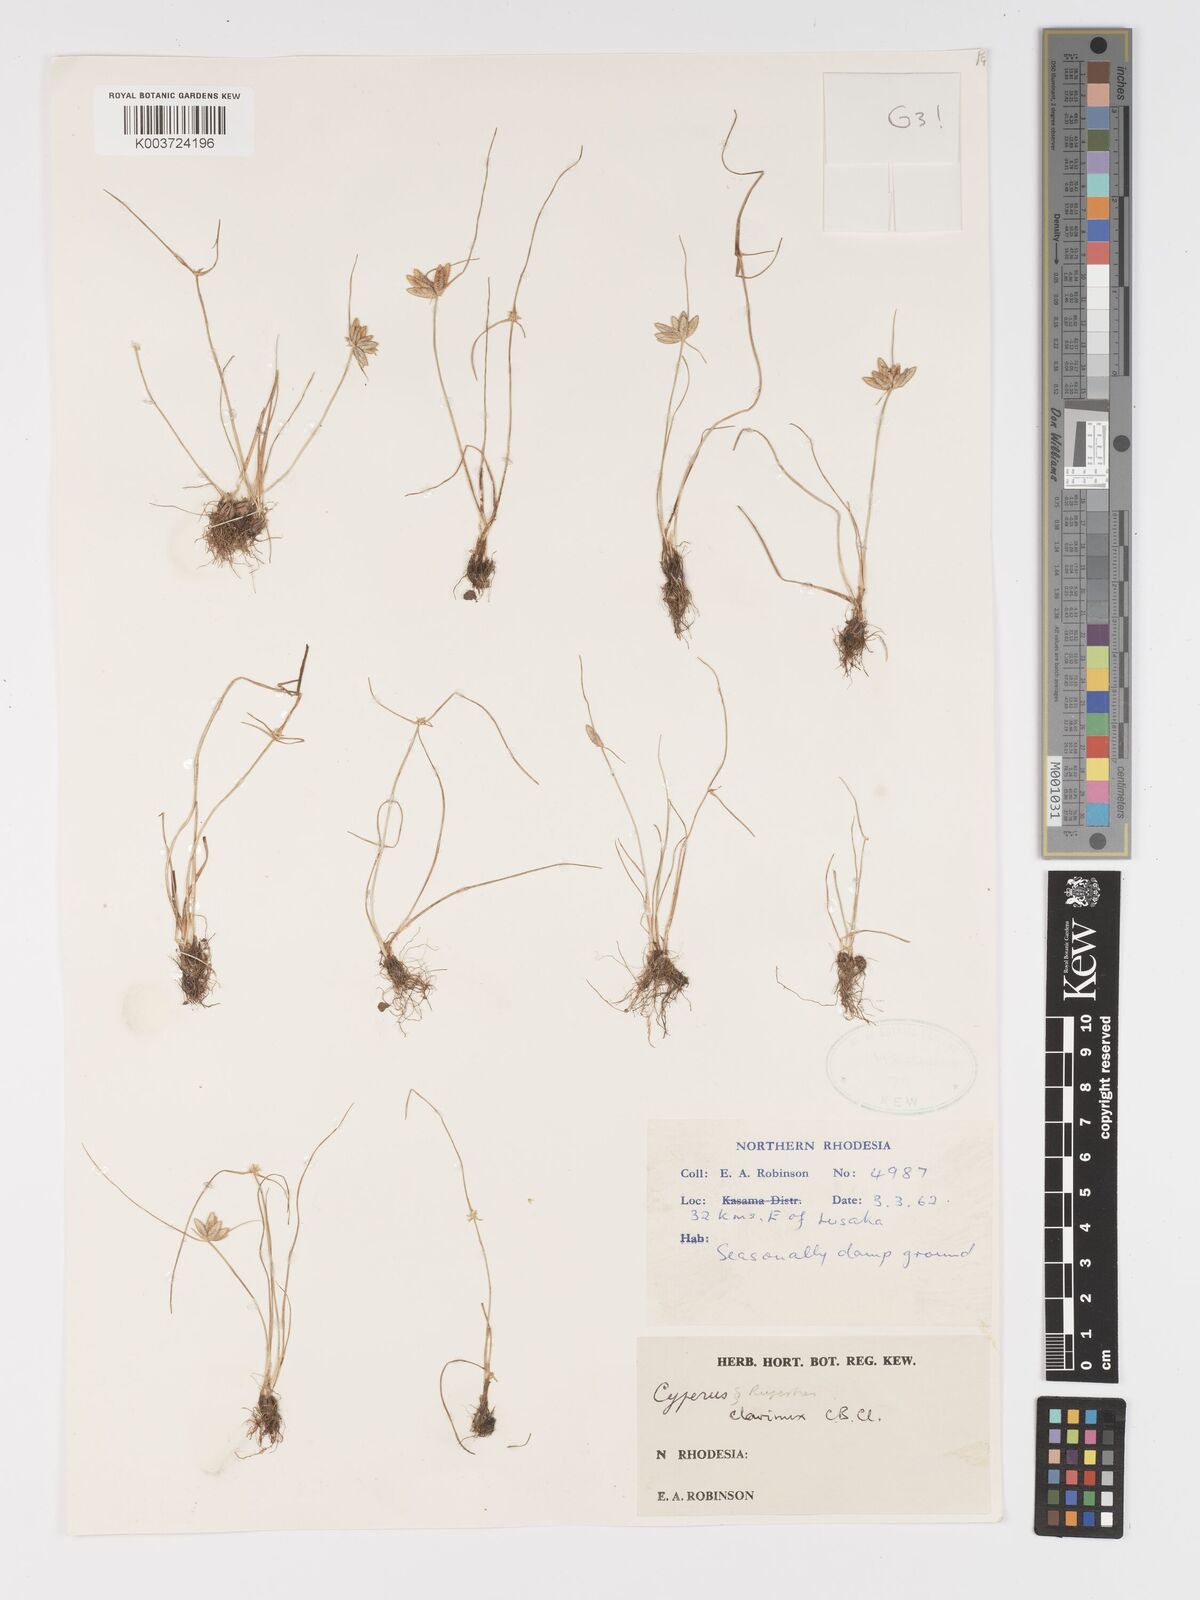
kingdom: Plantae
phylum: Tracheophyta
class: Liliopsida
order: Poales
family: Cyperaceae
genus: Cyperus
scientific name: Cyperus clavinux
